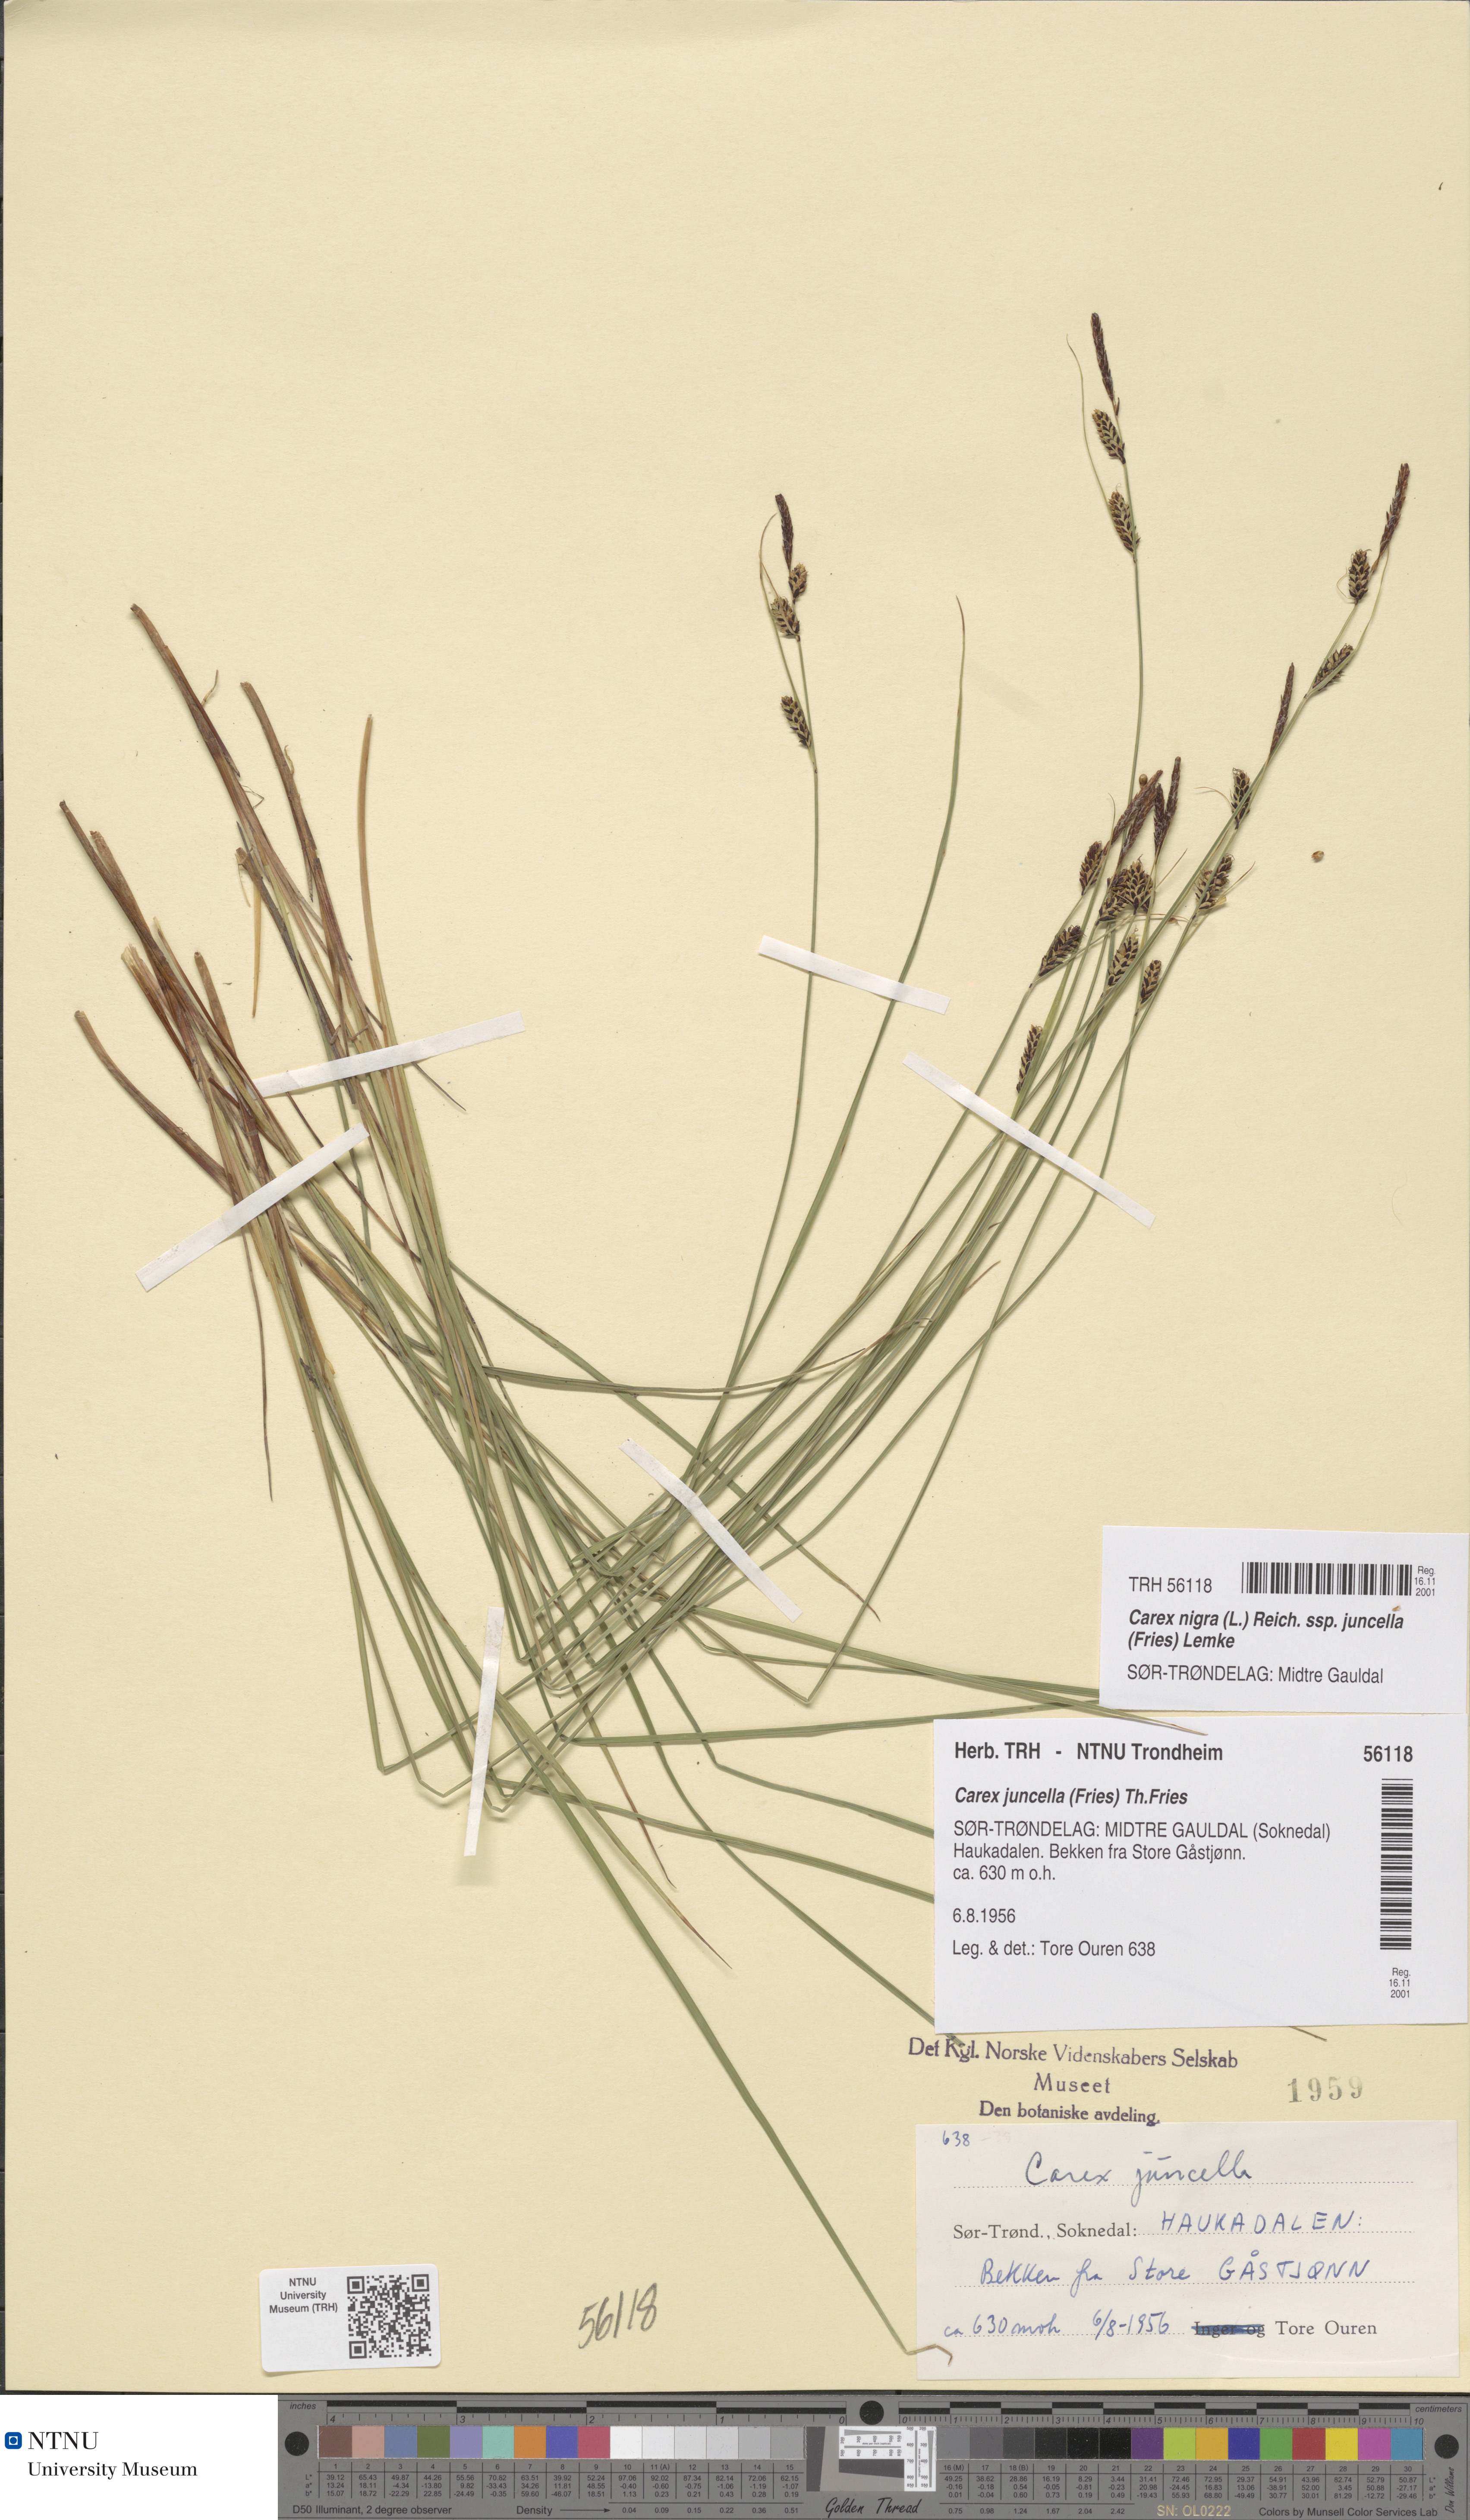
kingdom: Plantae
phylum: Tracheophyta
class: Liliopsida
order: Poales
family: Cyperaceae
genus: Carex
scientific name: Carex nigra
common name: Common sedge
